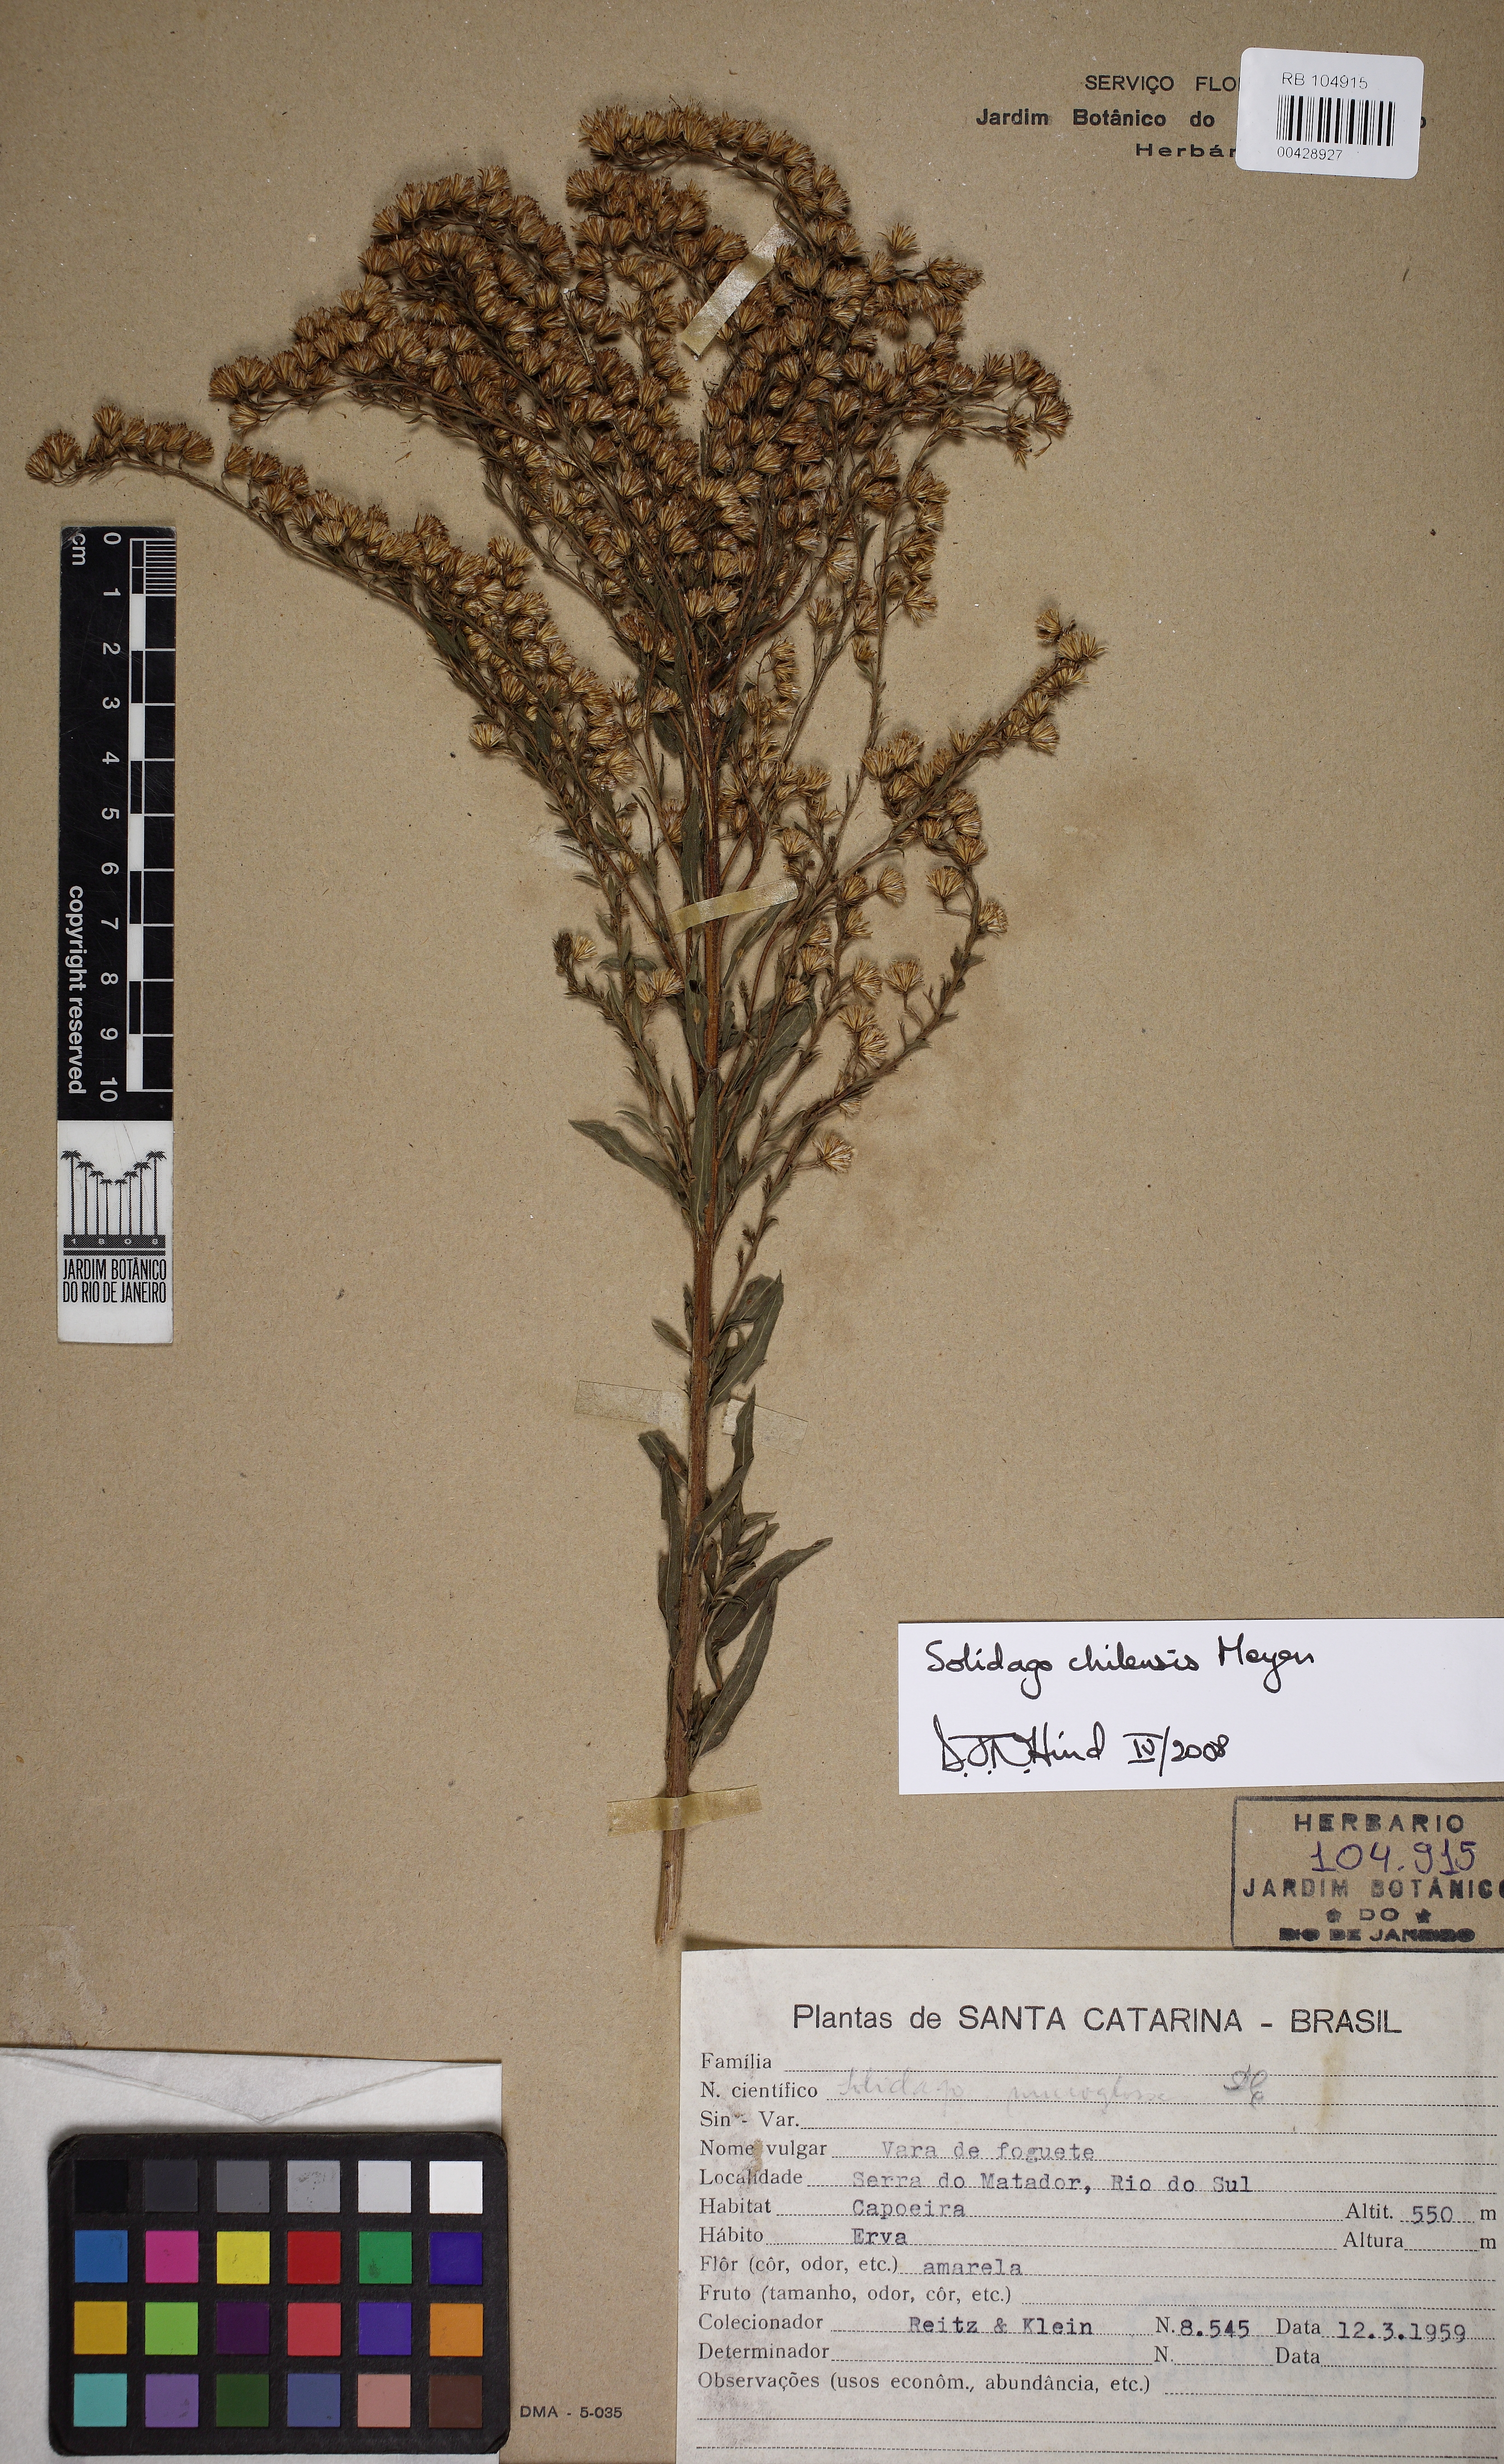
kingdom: Plantae
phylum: Tracheophyta
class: Magnoliopsida
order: Asterales
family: Asteraceae
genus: Solidago
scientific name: Solidago chilensis
